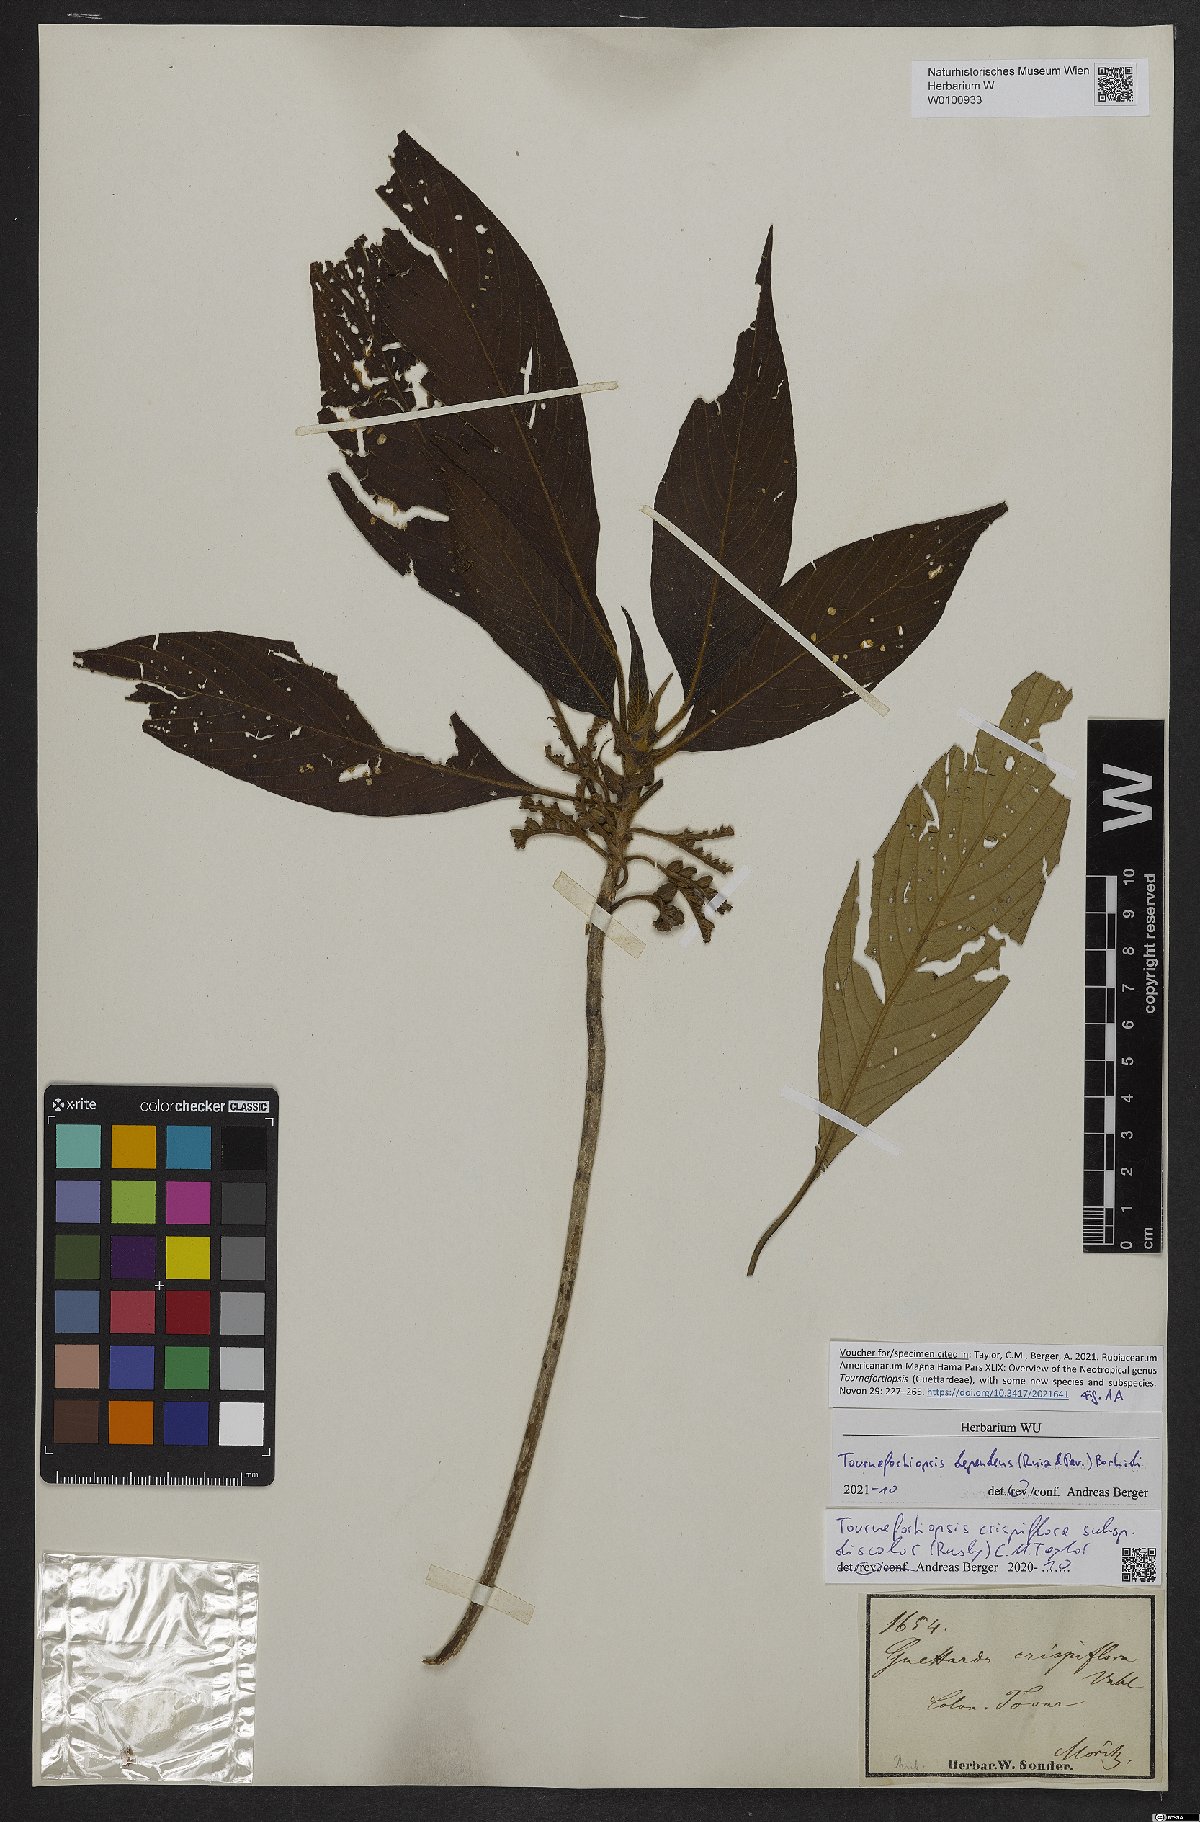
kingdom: Plantae
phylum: Tracheophyta
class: Magnoliopsida
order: Gentianales
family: Rubiaceae
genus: Tournefortiopsis
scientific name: Tournefortiopsis dependens
